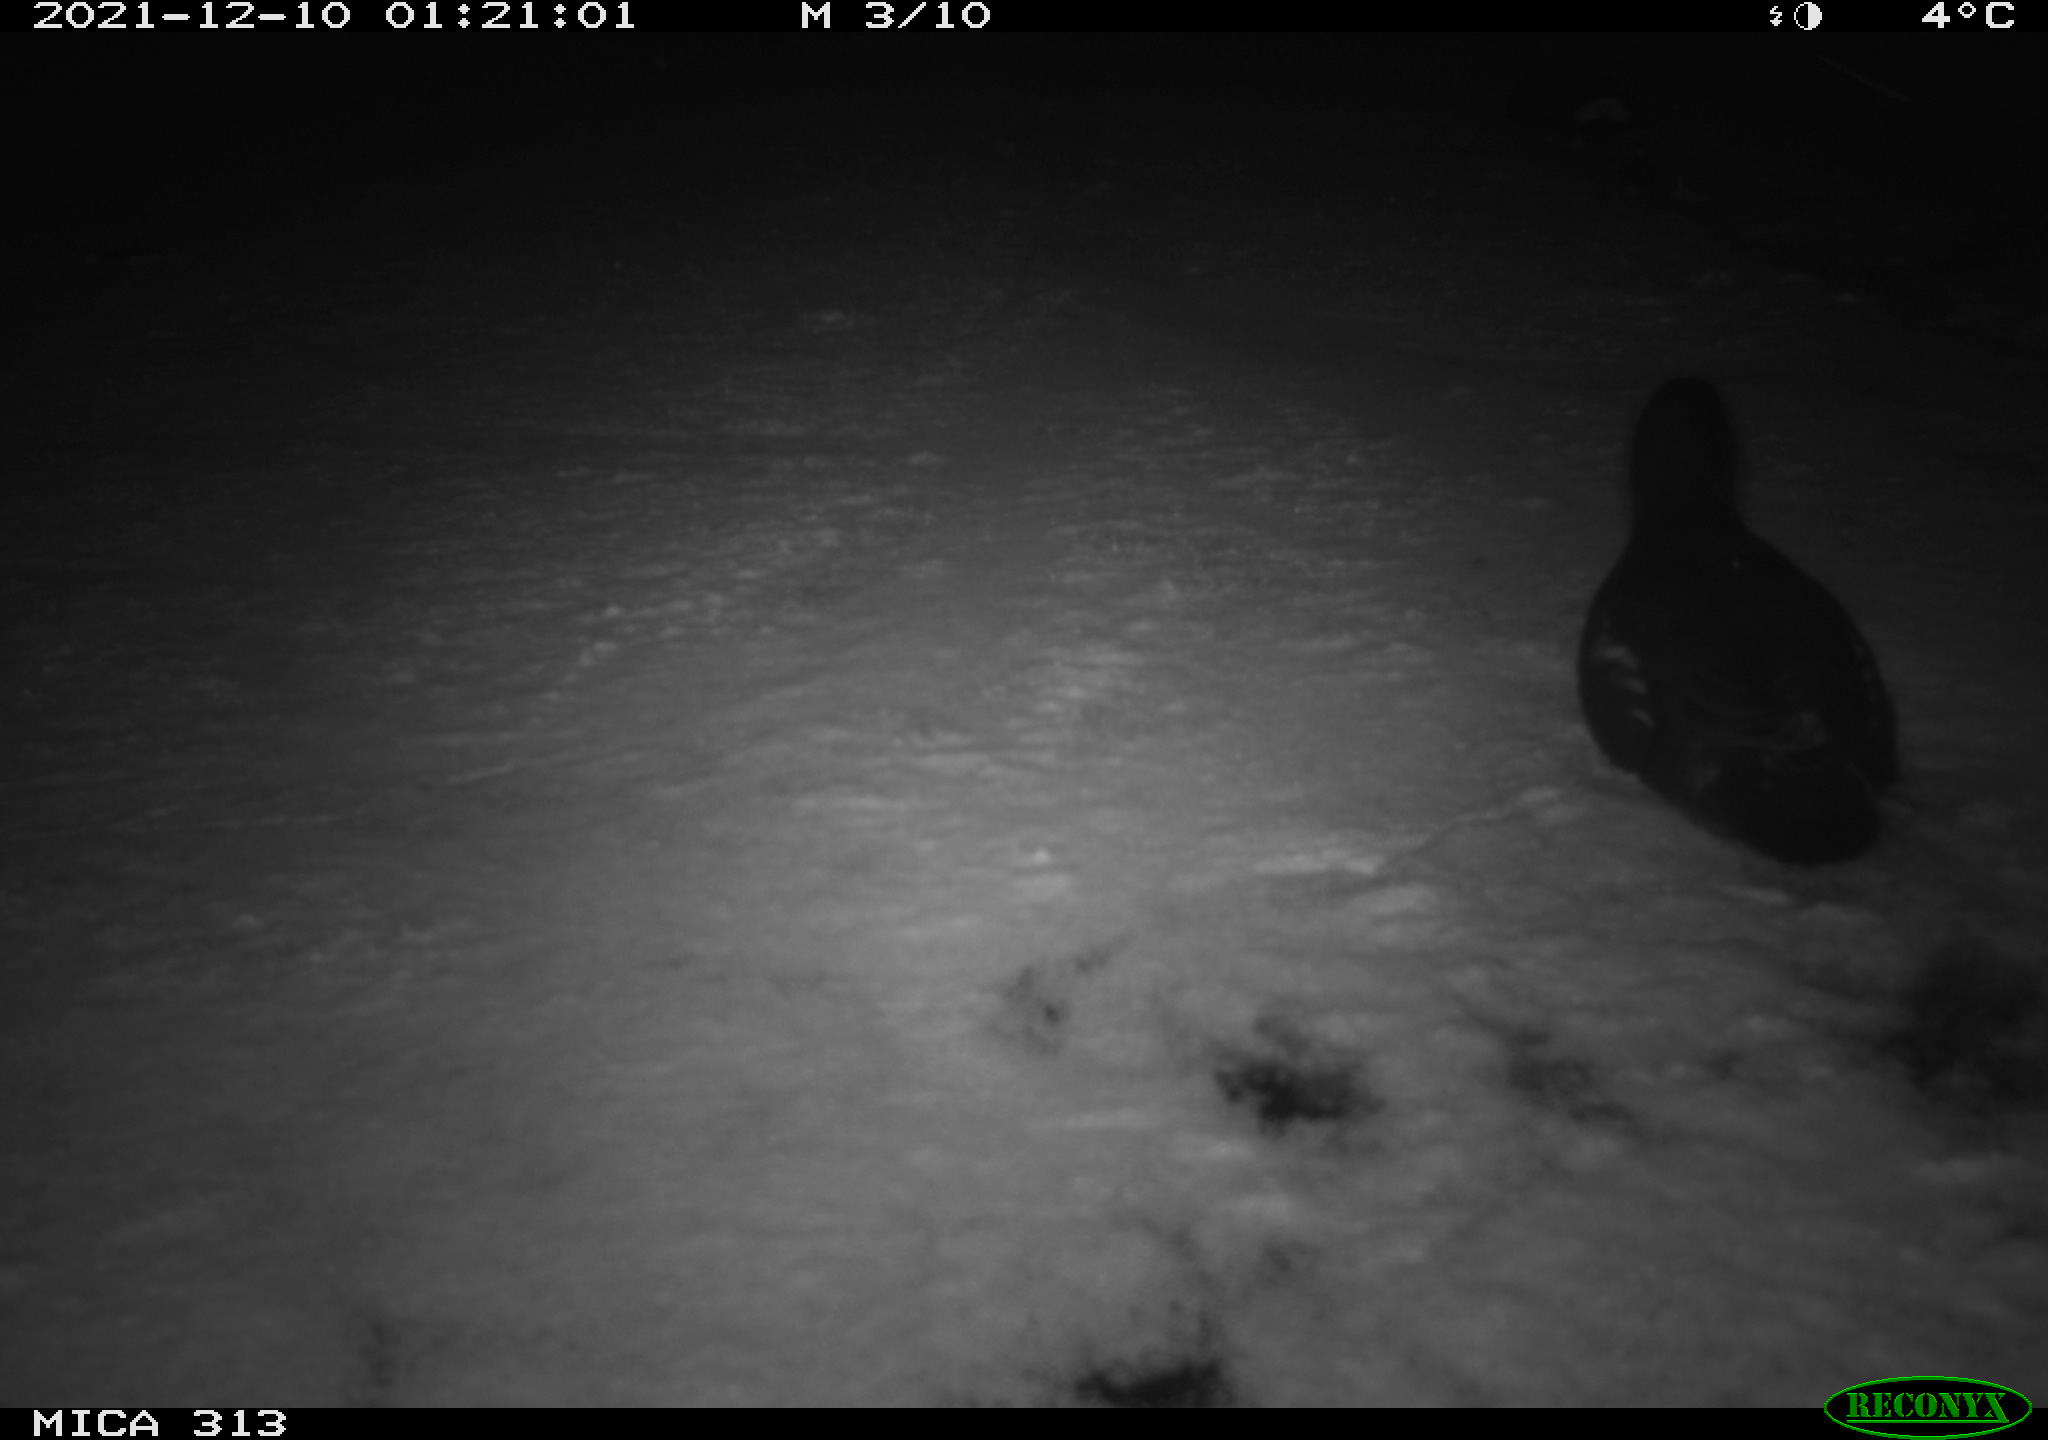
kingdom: Animalia
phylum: Chordata
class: Aves
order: Gruiformes
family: Rallidae
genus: Fulica
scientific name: Fulica atra
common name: Eurasian coot
